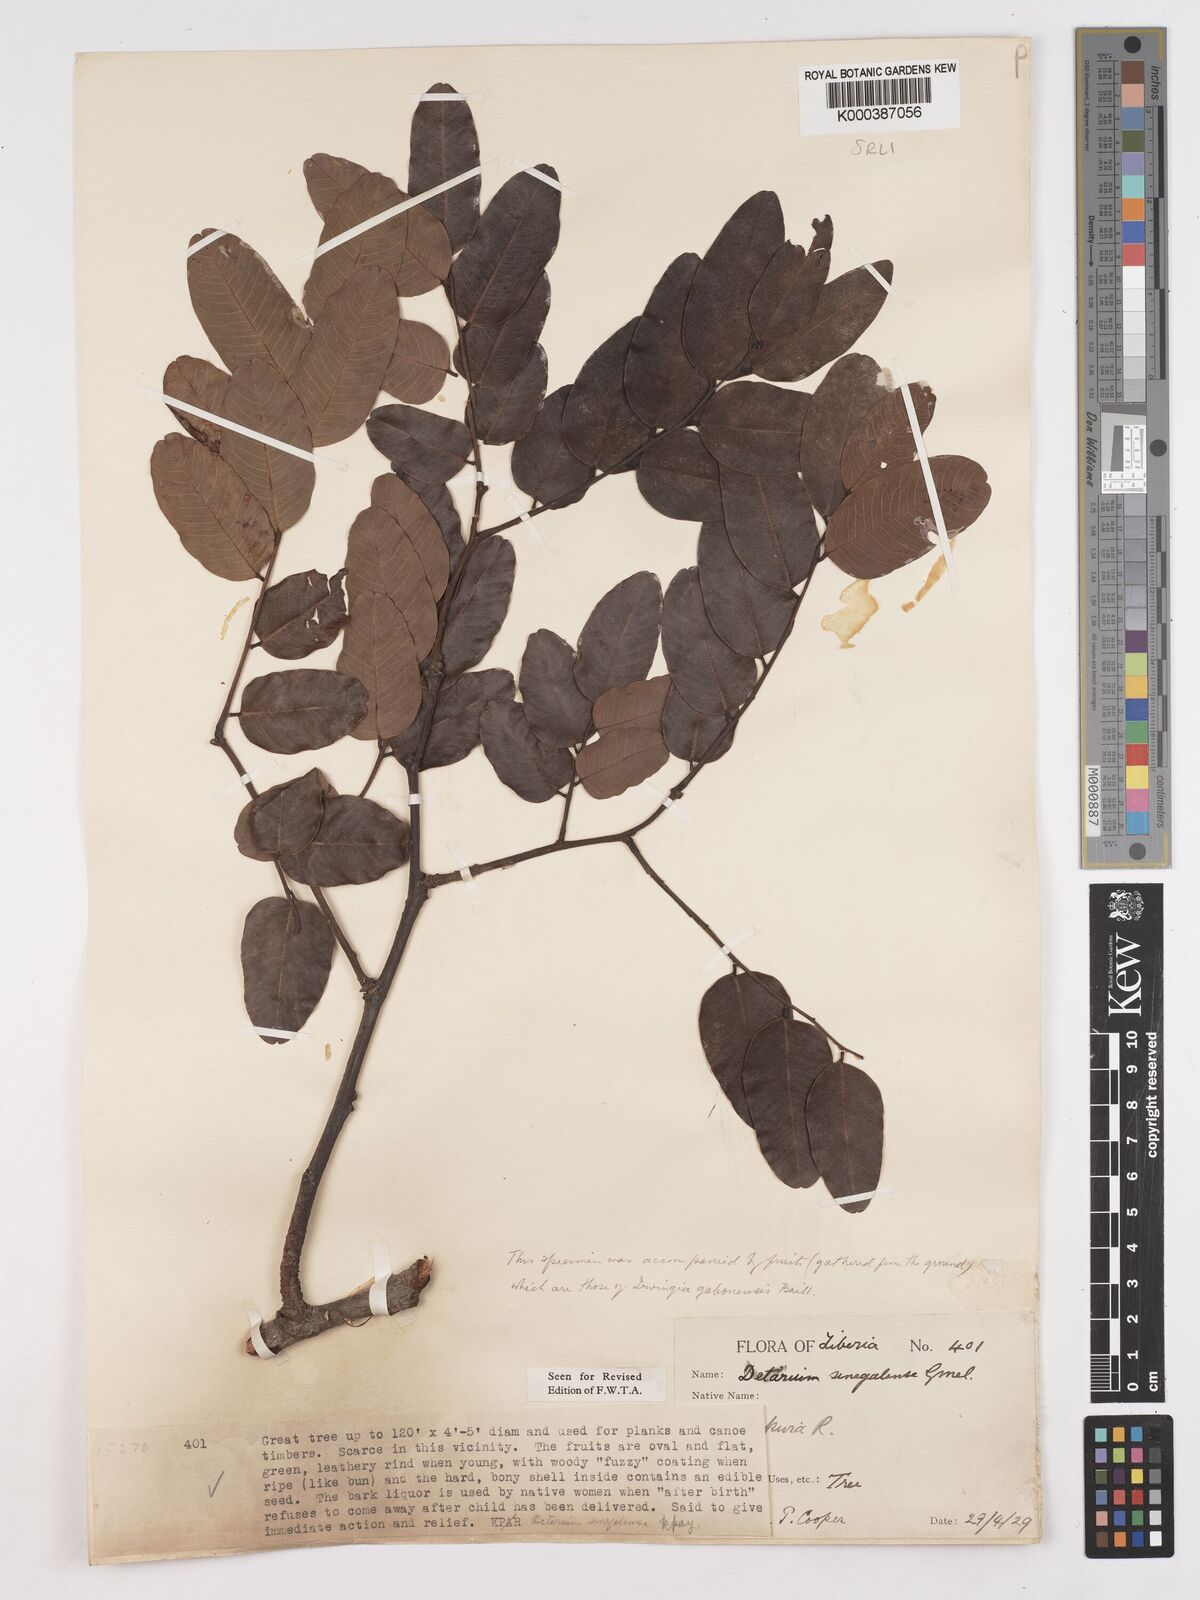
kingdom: Plantae
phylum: Tracheophyta
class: Magnoliopsida
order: Fabales
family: Fabaceae
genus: Detarium
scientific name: Detarium microcarpum
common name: Sweet dattock
